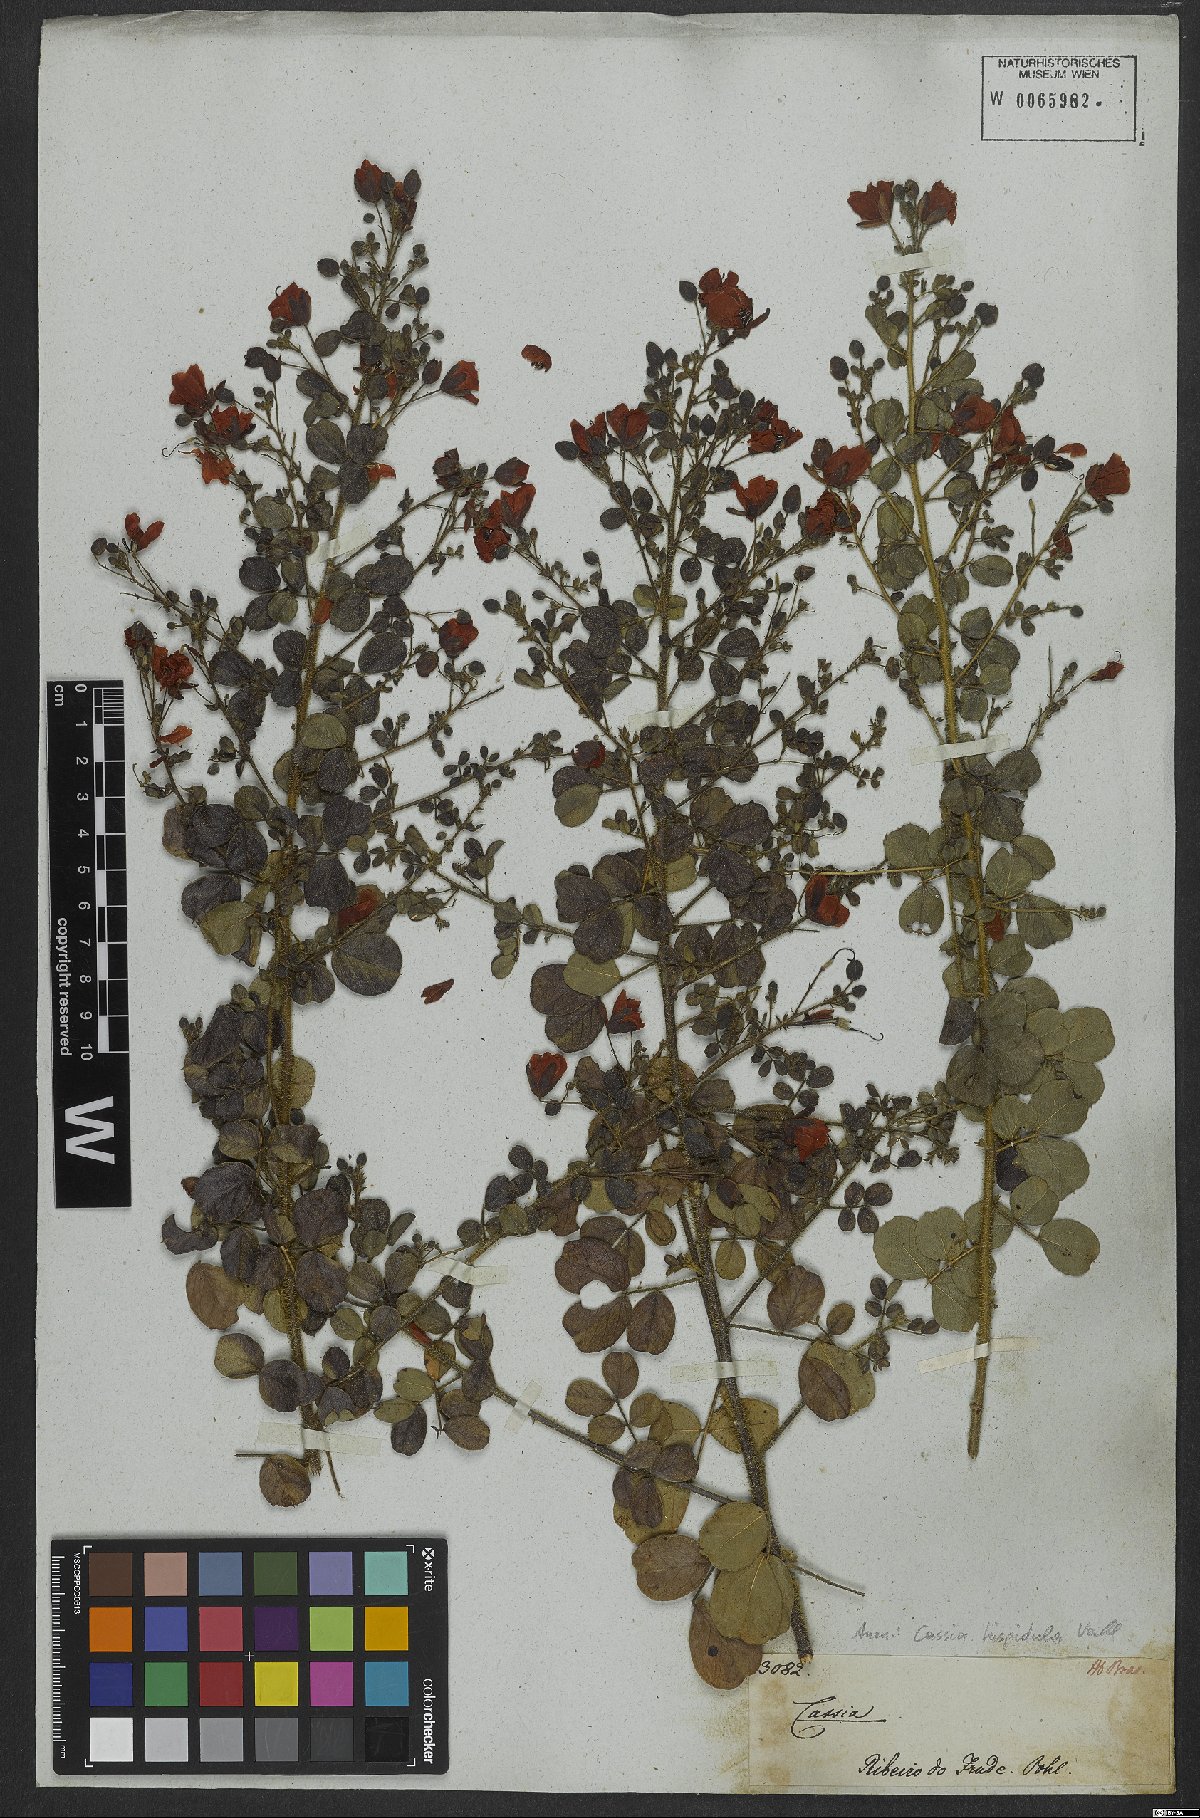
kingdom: Plantae
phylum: Tracheophyta
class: Magnoliopsida
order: Fabales
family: Fabaceae
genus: Chamaecrista
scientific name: Chamaecrista hispidula
